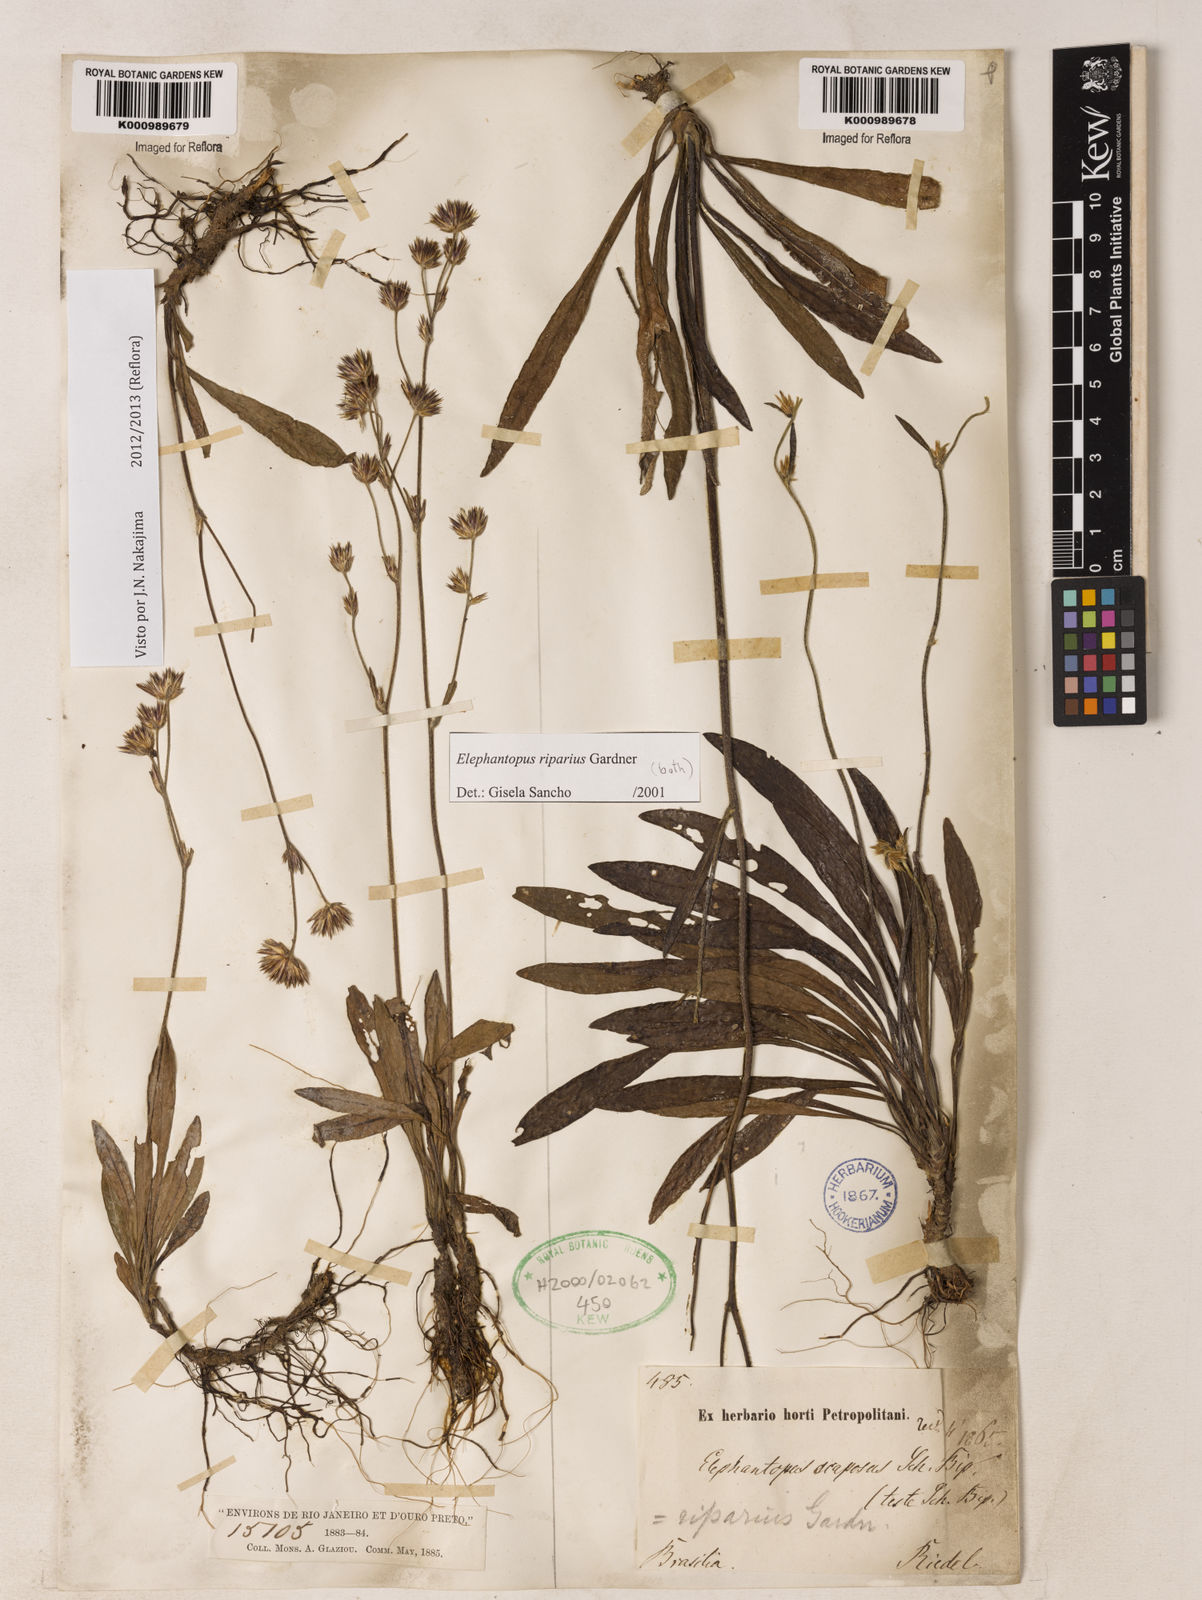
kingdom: Plantae
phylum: Tracheophyta
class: Magnoliopsida
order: Asterales
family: Asteraceae
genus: Elephantopus
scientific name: Elephantopus riparius
